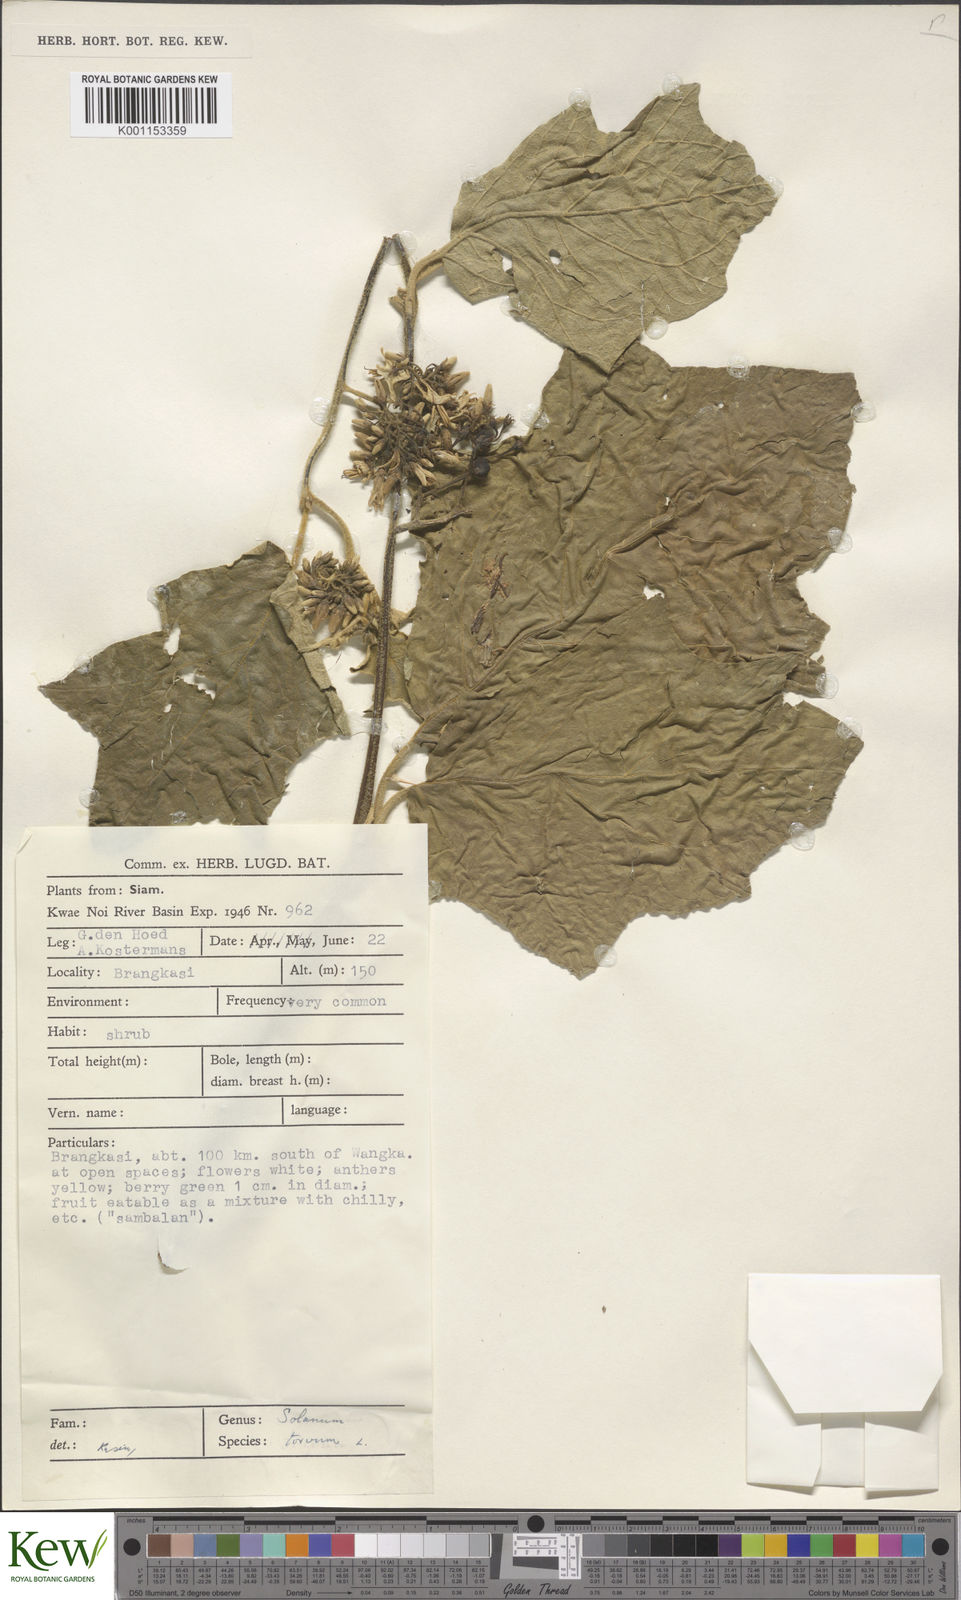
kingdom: Plantae
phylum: Tracheophyta
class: Magnoliopsida
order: Solanales
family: Solanaceae
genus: Solanum
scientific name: Solanum torvum
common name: Turkey berry
